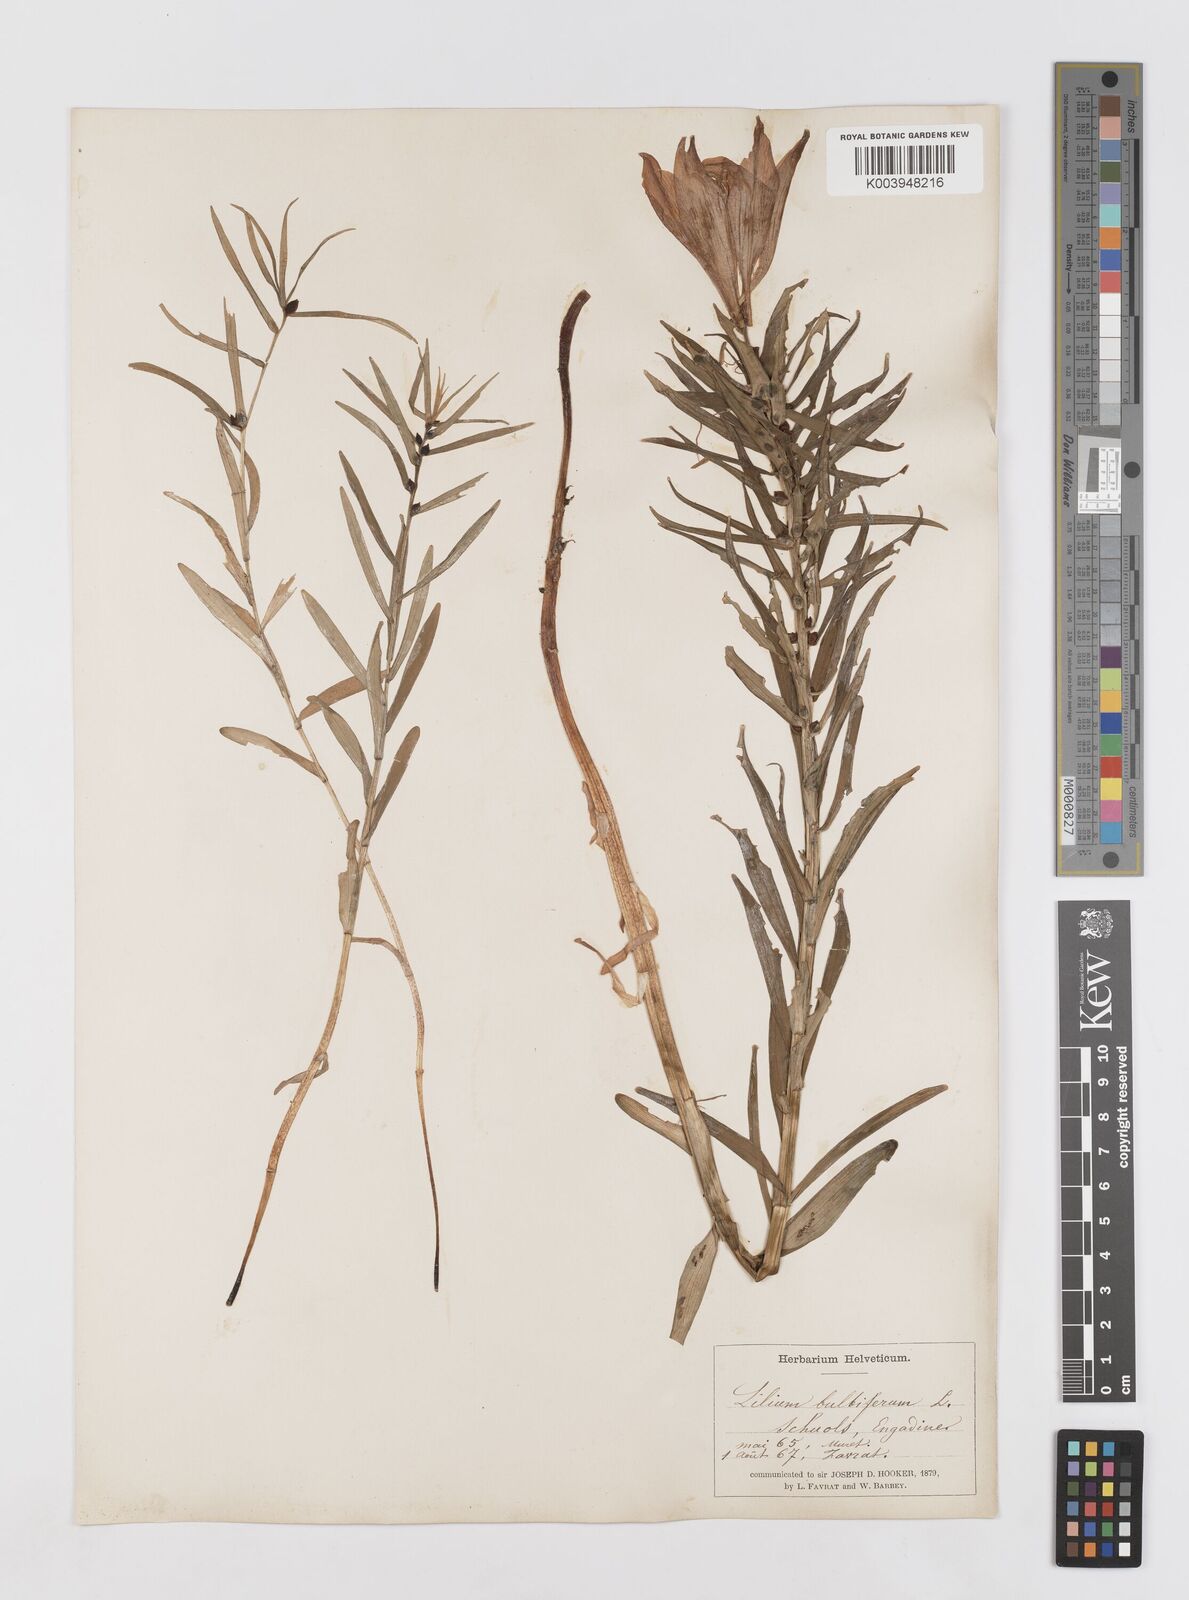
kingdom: Plantae
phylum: Tracheophyta
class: Liliopsida
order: Liliales
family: Liliaceae
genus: Lilium
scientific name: Lilium bulbiferum
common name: Orange lily
